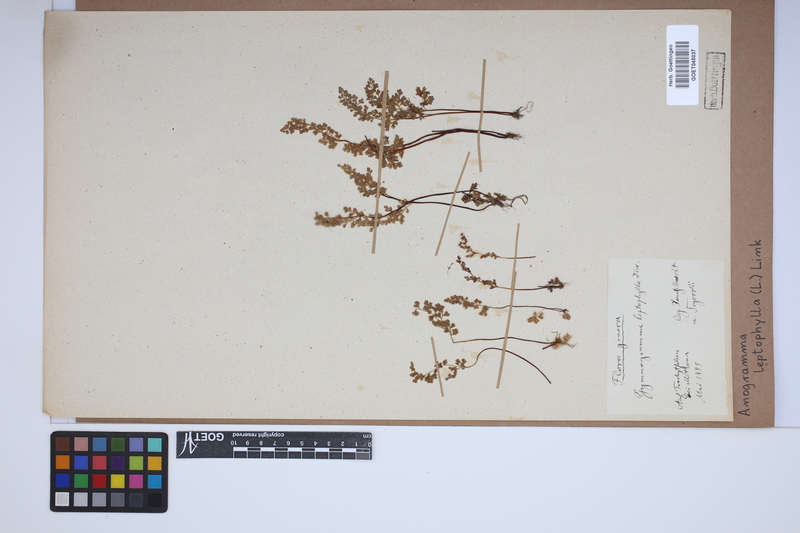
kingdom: Plantae
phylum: Tracheophyta
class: Polypodiopsida
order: Polypodiales
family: Pteridaceae
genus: Anogramma
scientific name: Anogramma leptophylla
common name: Jersey fern
